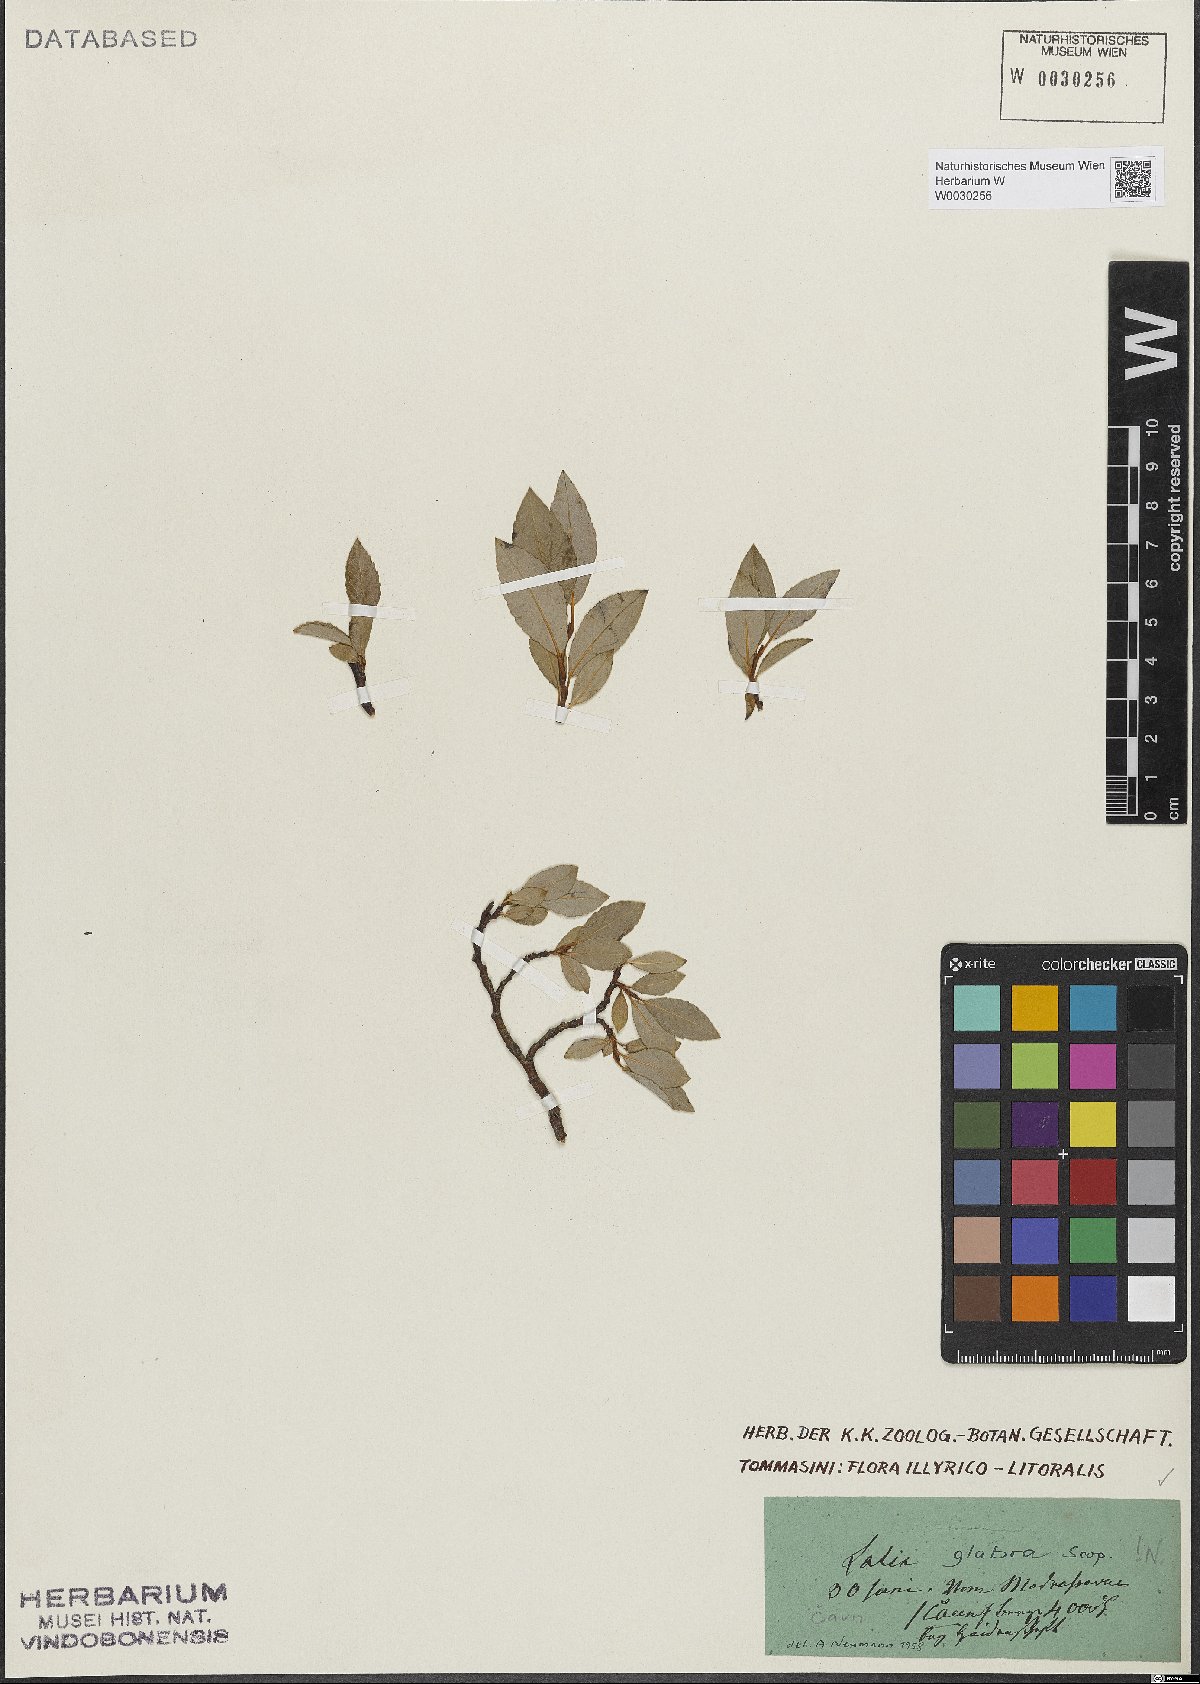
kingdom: Plantae
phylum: Tracheophyta
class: Magnoliopsida
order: Malpighiales
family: Salicaceae
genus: Salix
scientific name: Salix glabra
